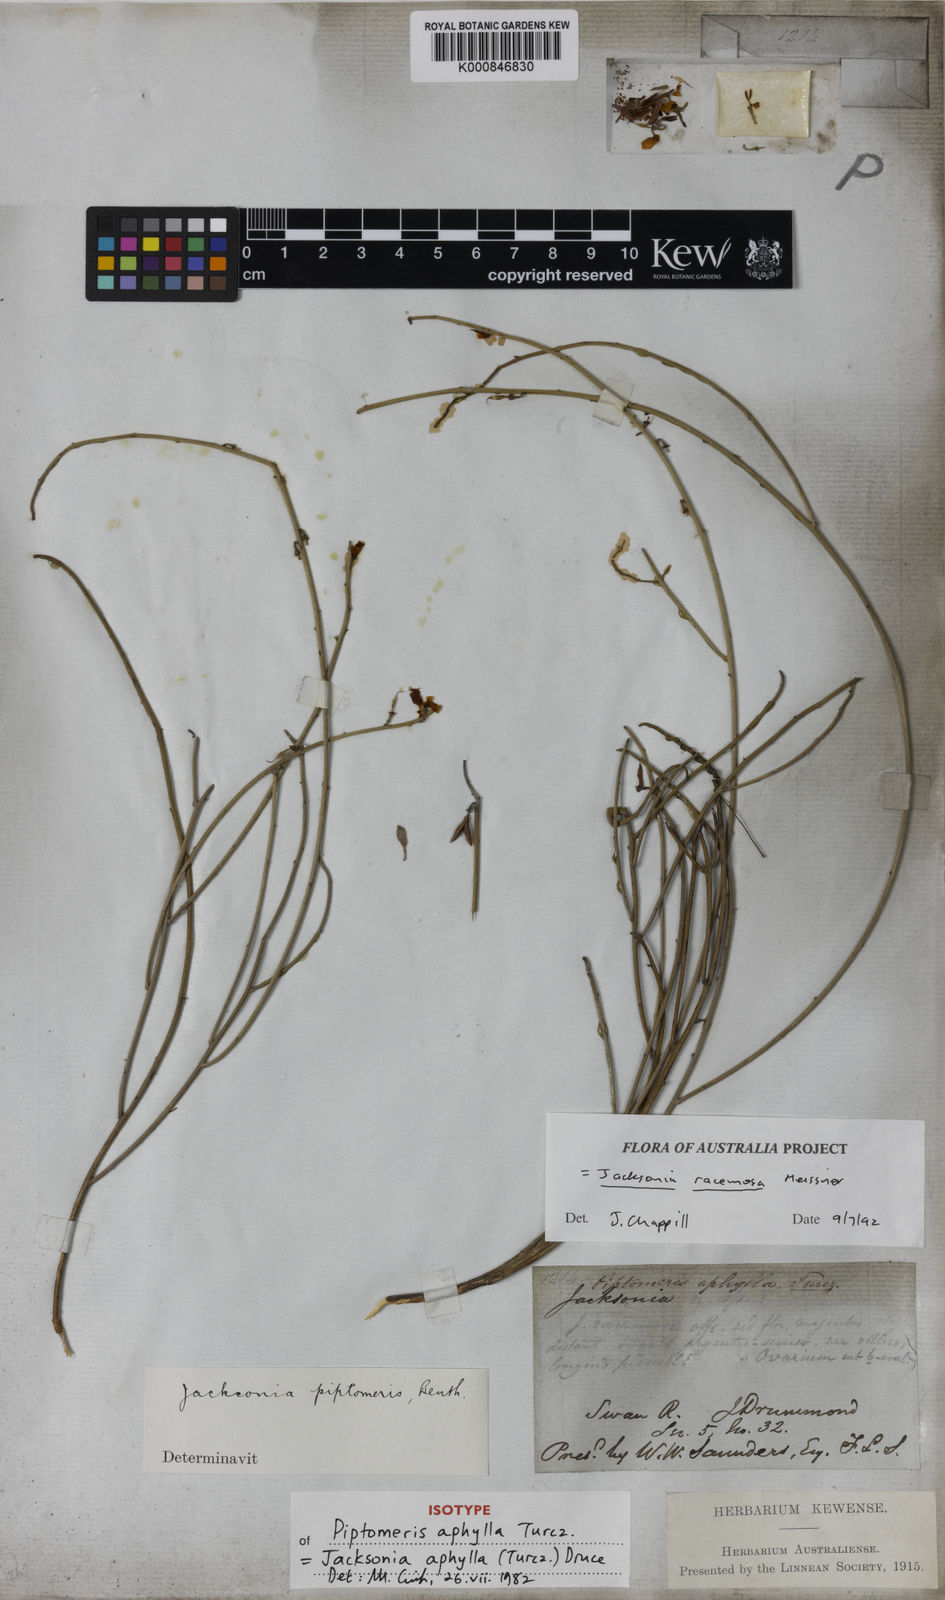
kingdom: Plantae
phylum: Tracheophyta
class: Magnoliopsida
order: Fabales
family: Fabaceae
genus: Jacksonia
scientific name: Jacksonia racemosa
